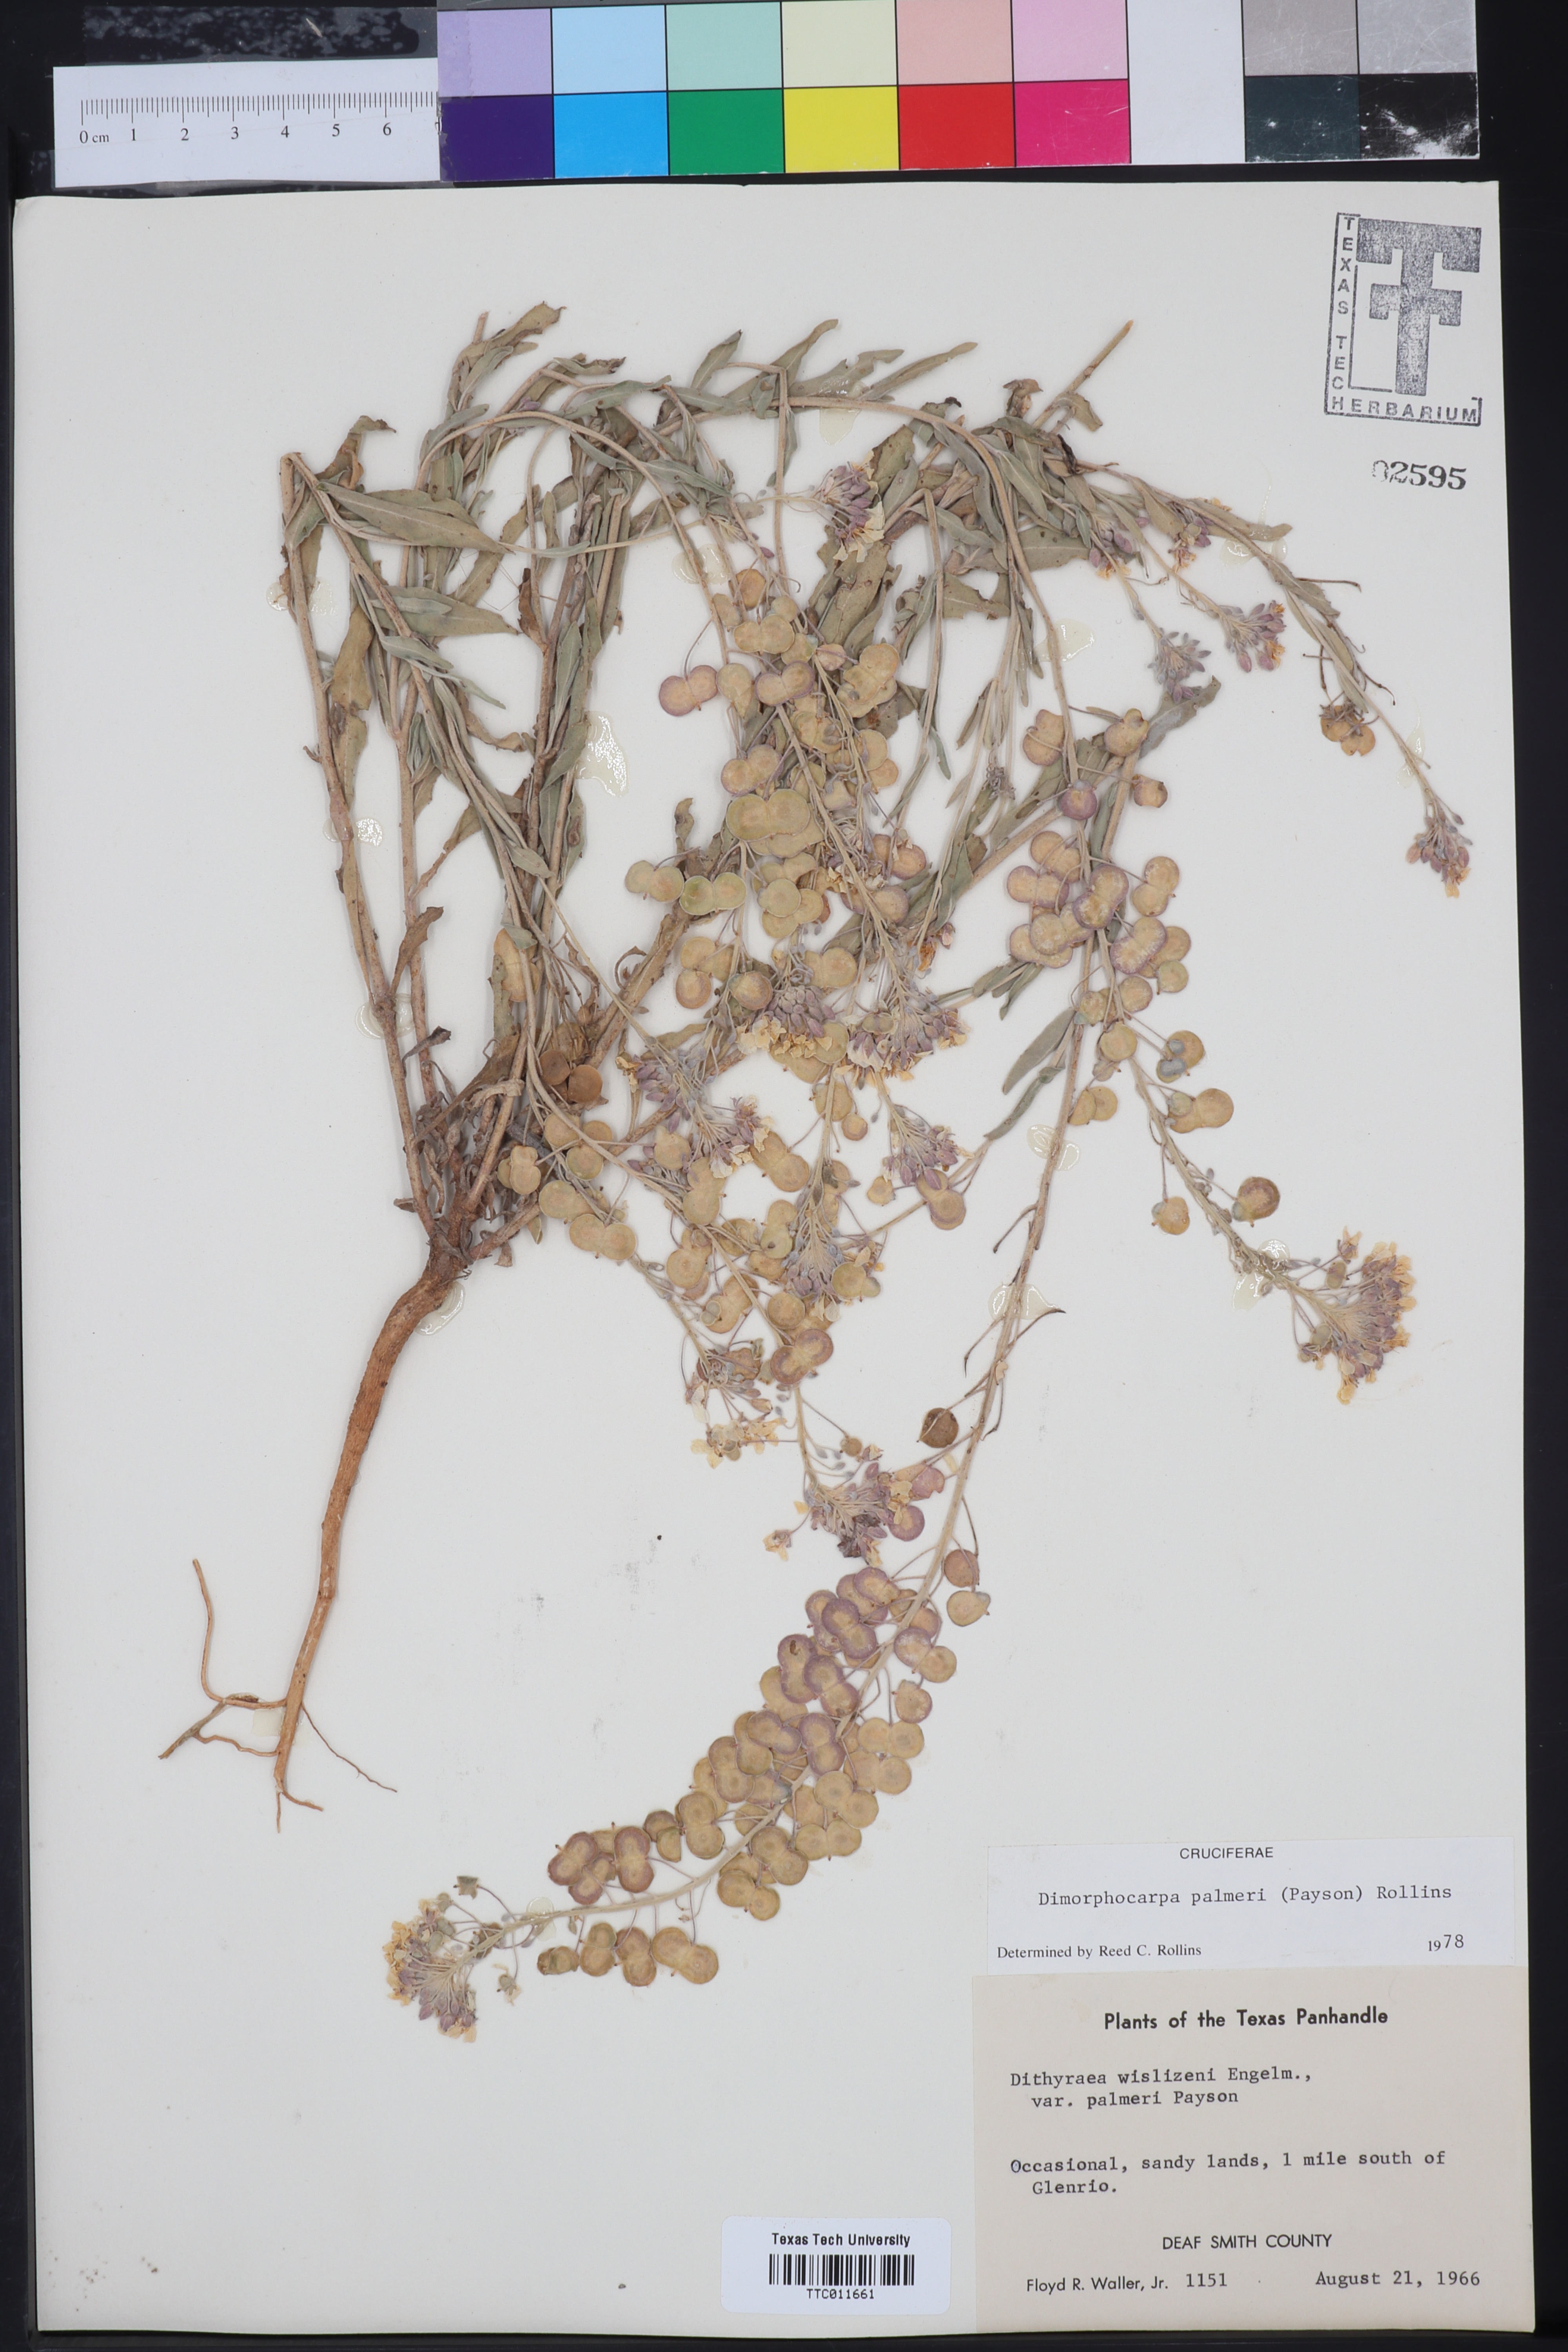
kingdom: Plantae
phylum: Tracheophyta
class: Magnoliopsida
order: Brassicales
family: Brassicaceae
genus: Dimorphocarpa
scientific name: Dimorphocarpa candicans
